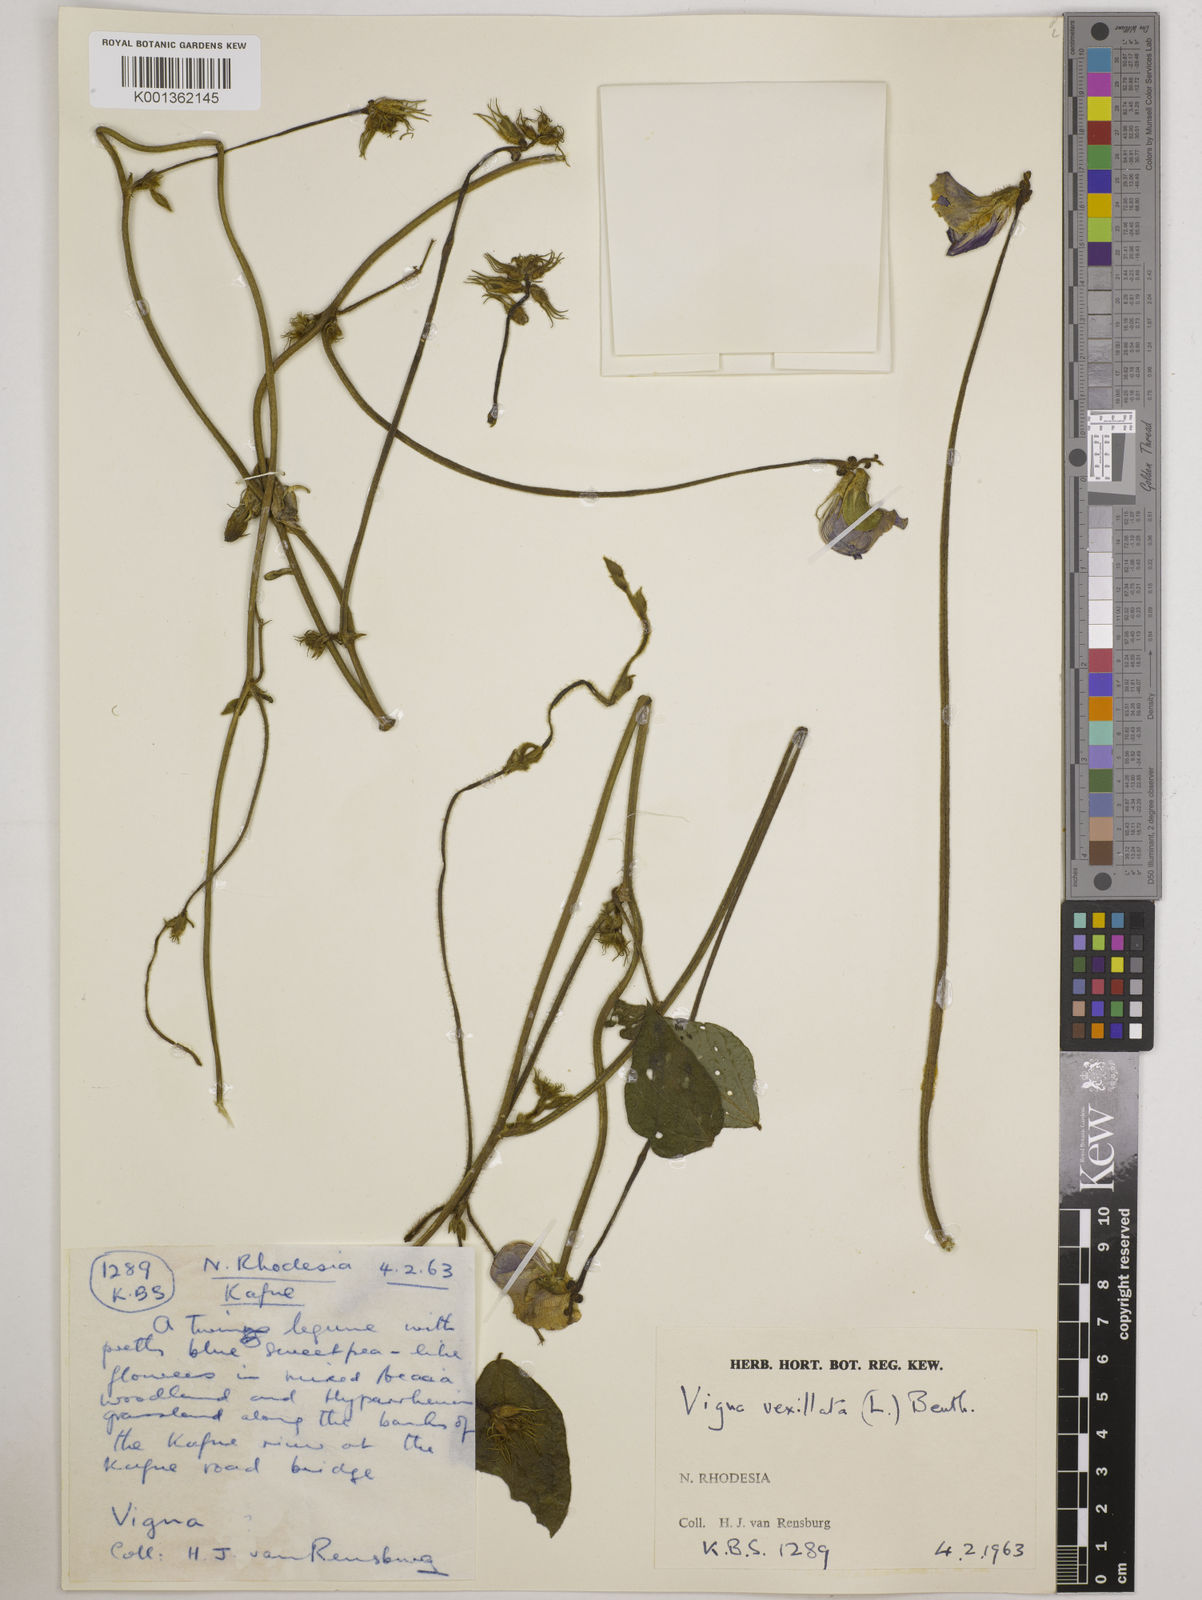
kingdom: Plantae
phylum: Tracheophyta
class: Magnoliopsida
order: Fabales
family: Fabaceae
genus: Vigna
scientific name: Vigna vexillata
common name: Zombi pea
